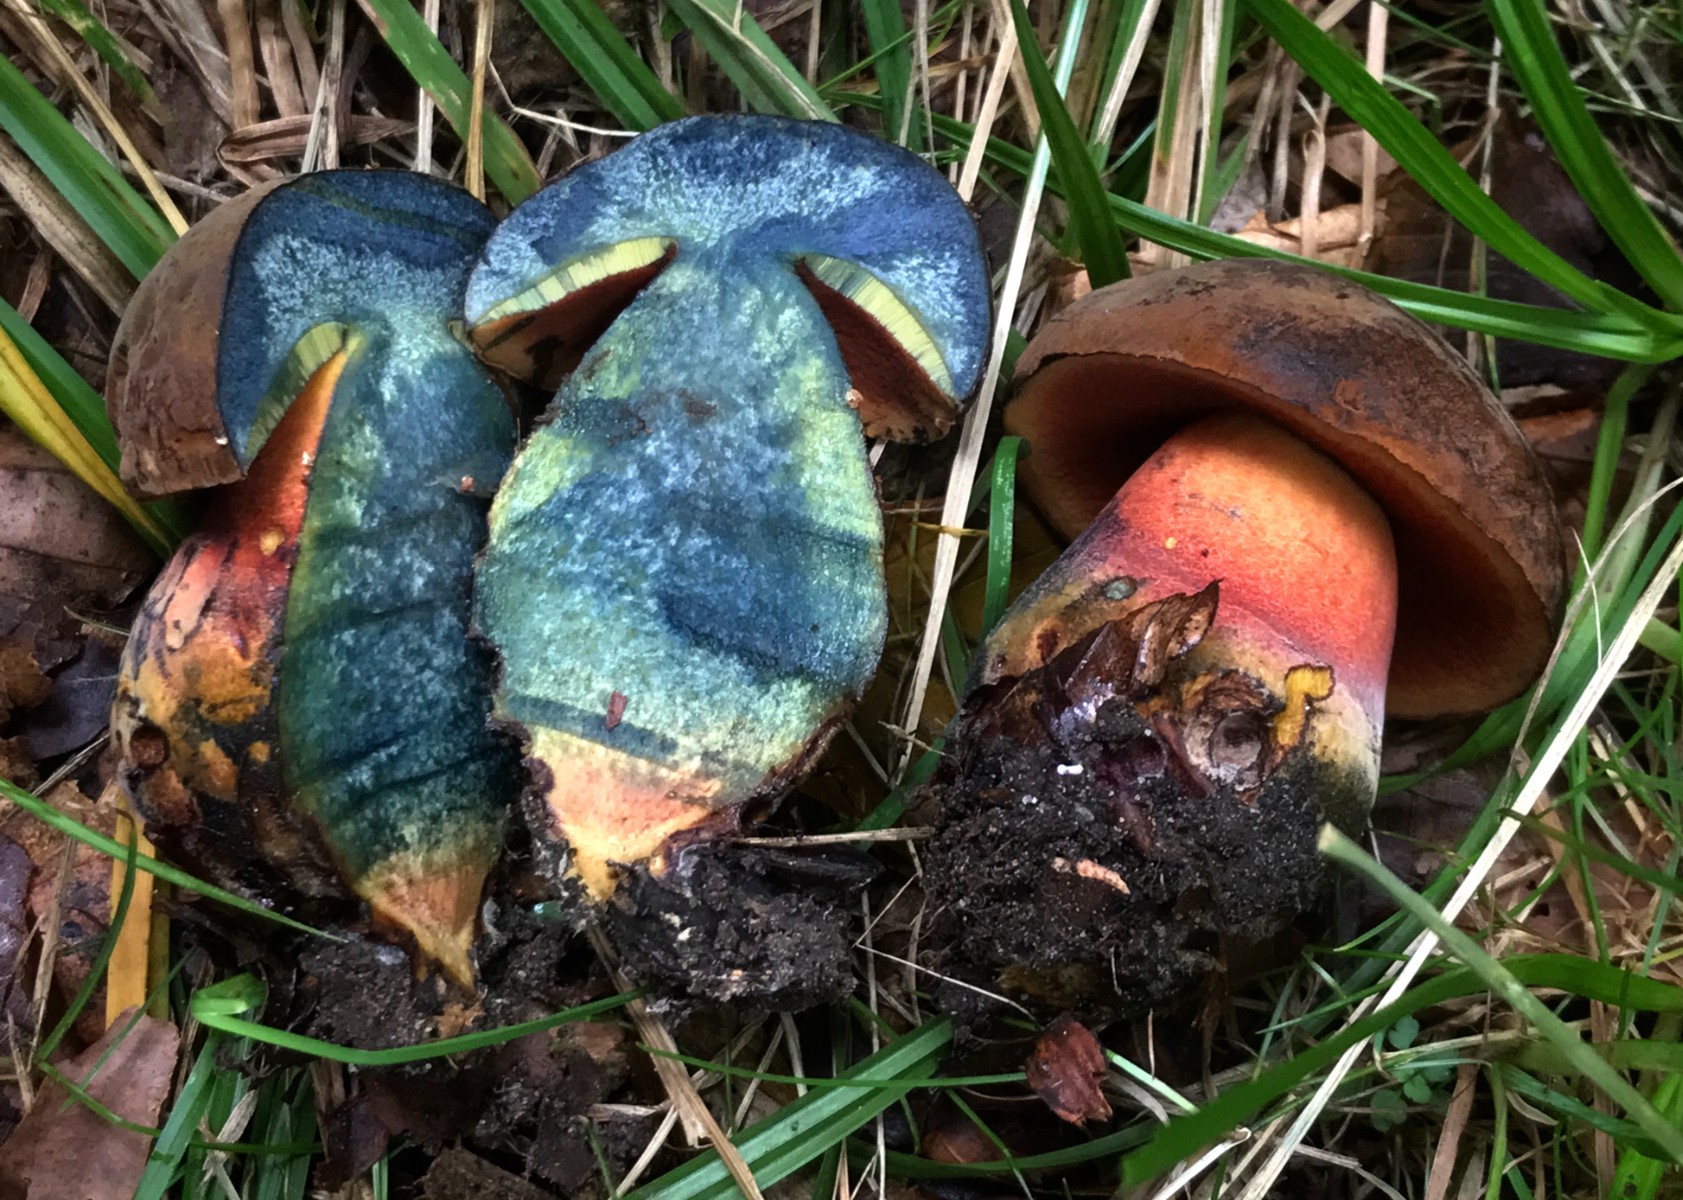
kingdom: Fungi
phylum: Basidiomycota
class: Agaricomycetes
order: Boletales
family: Boletaceae
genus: Neoboletus
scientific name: Neoboletus erythropus
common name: punktstokket indigorørhat
